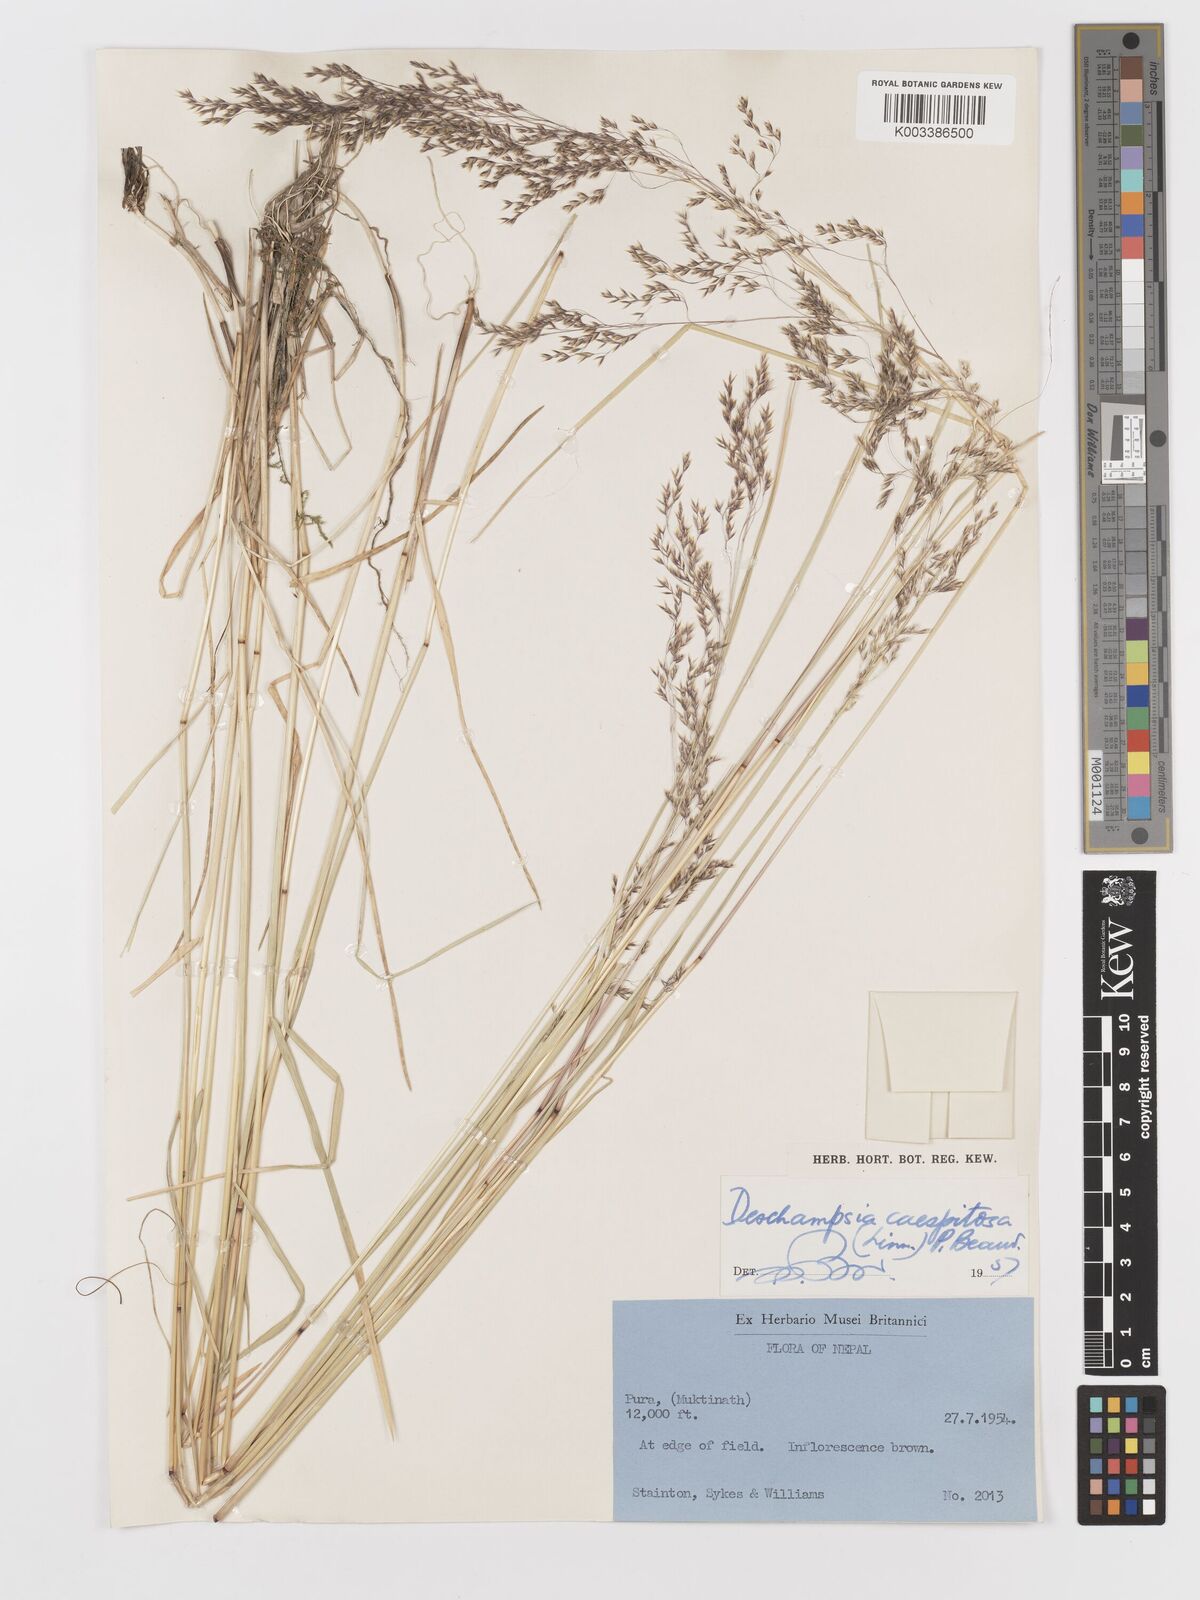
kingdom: Plantae
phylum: Tracheophyta
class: Liliopsida
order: Poales
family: Poaceae
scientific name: Poaceae
